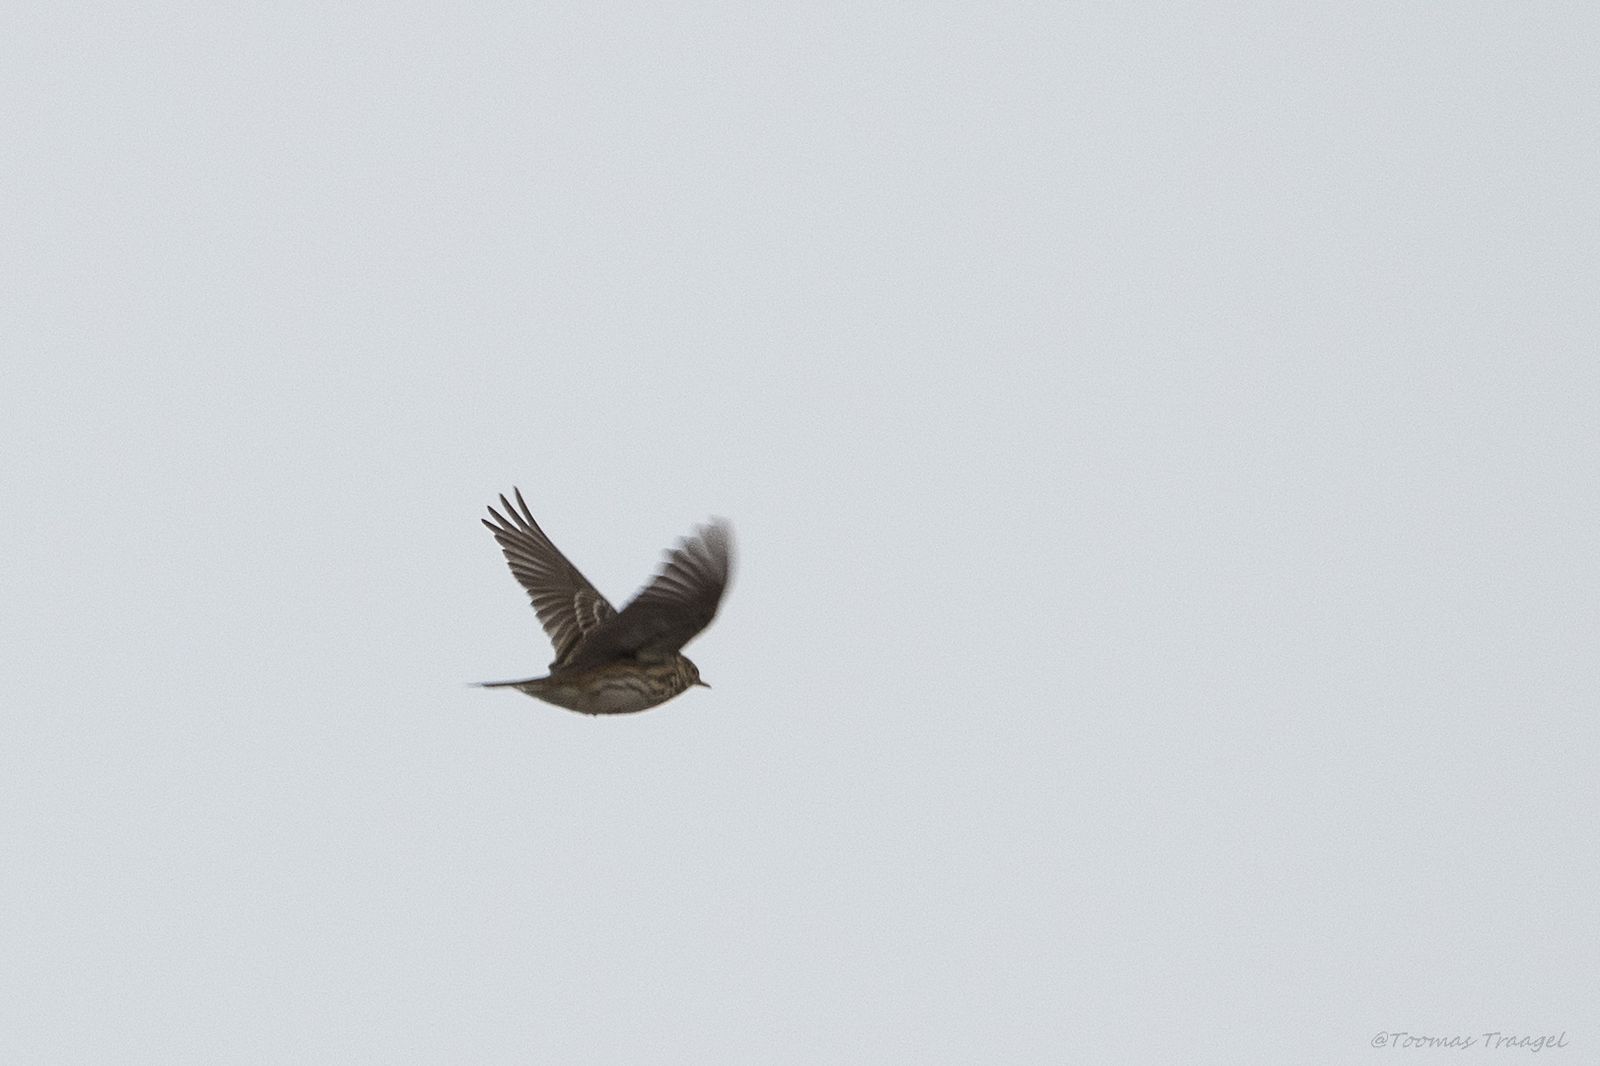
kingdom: Animalia
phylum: Chordata
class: Aves
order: Passeriformes
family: Motacillidae
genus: Anthus
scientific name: Anthus pratensis
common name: Meadow pipit
